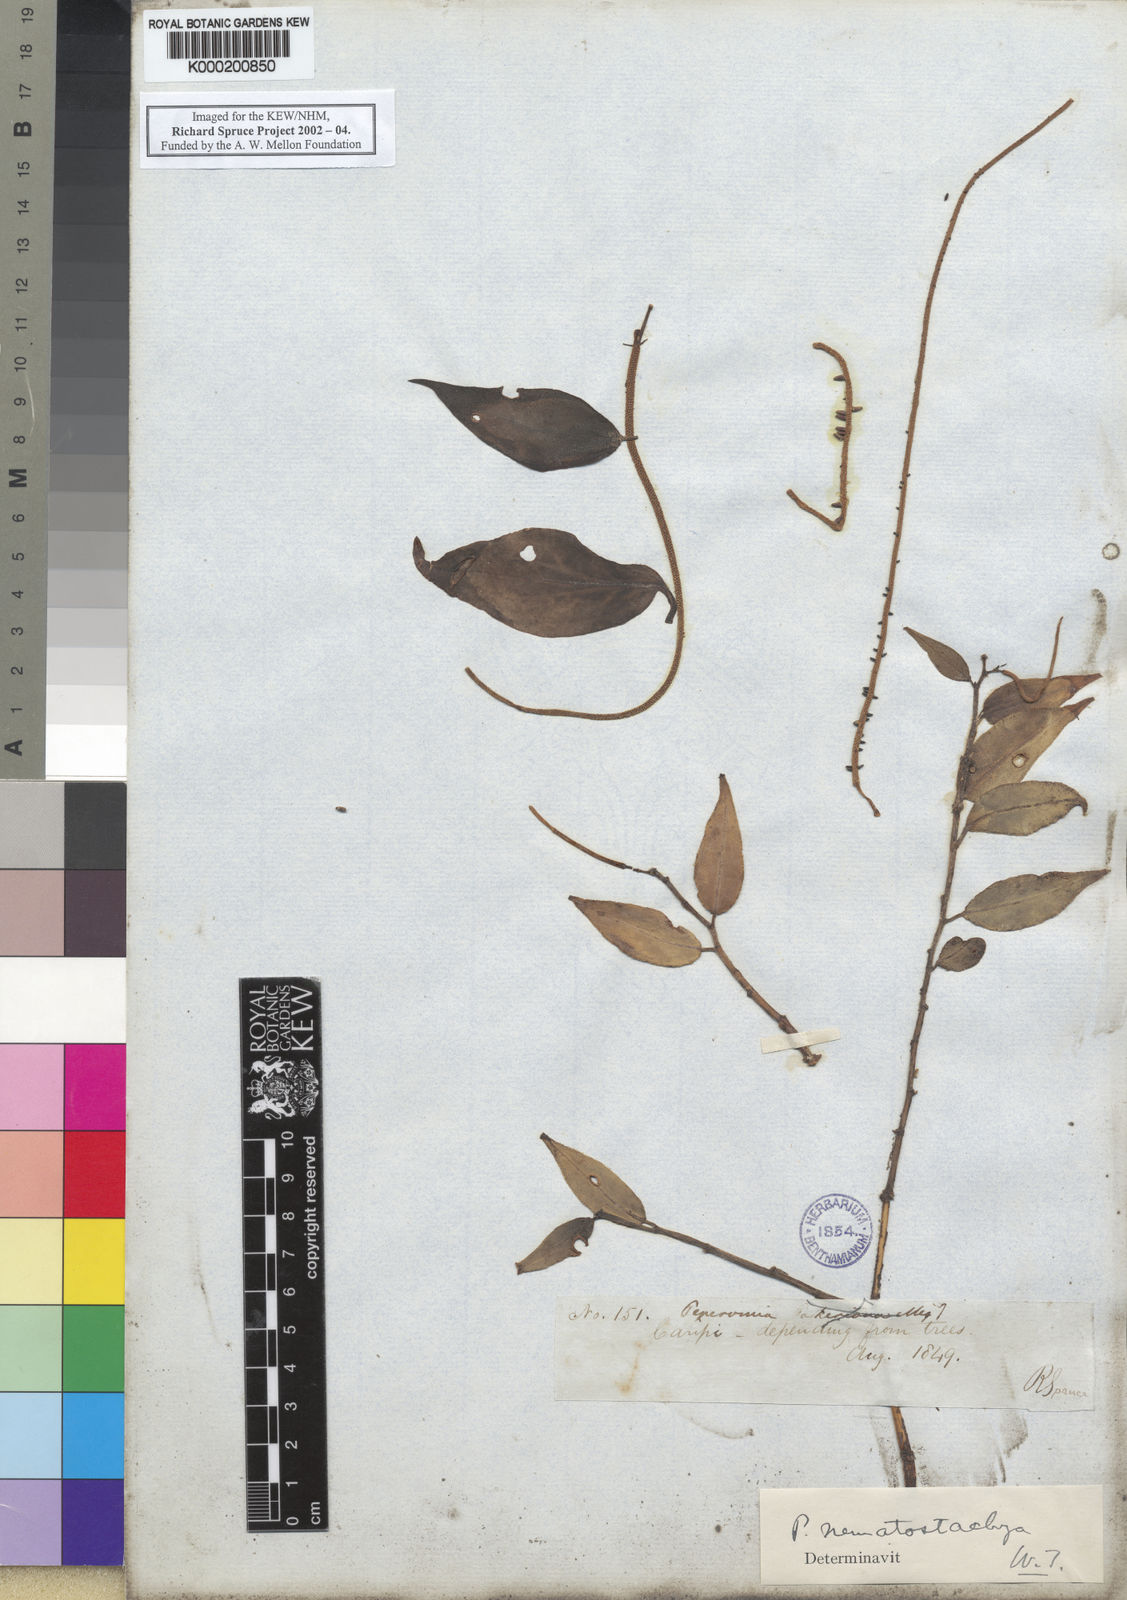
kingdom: Plantae
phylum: Tracheophyta
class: Magnoliopsida
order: Piperales
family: Piperaceae
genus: Peperomia
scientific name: Peperomia macrostachyos
